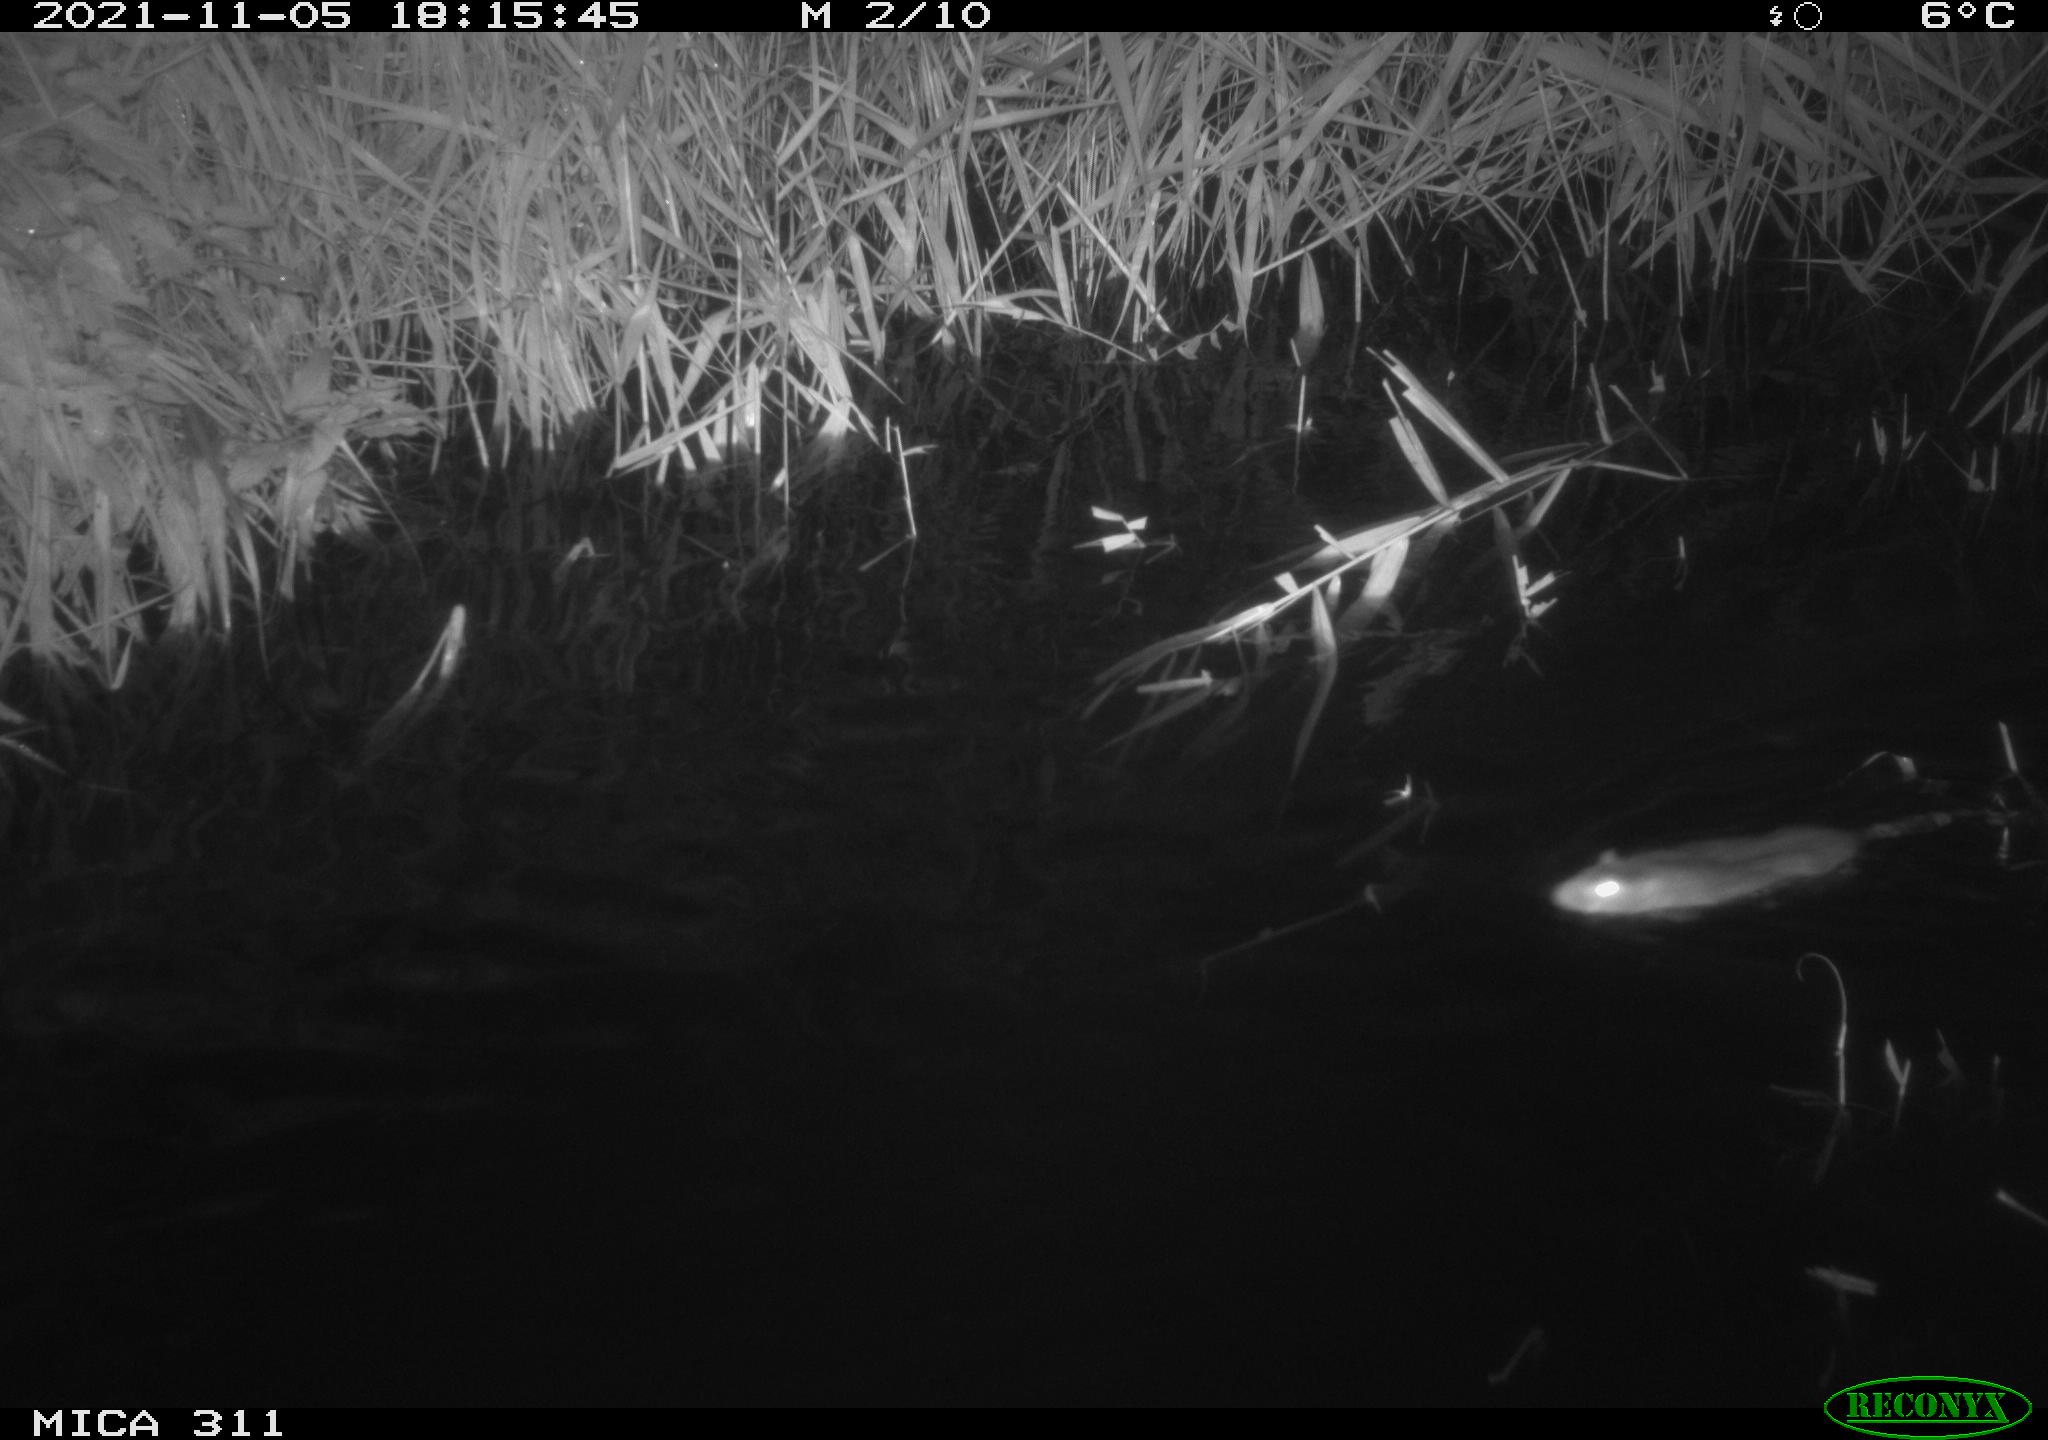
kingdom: Animalia
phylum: Chordata
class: Mammalia
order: Rodentia
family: Muridae
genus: Rattus
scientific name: Rattus norvegicus
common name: Brown rat
